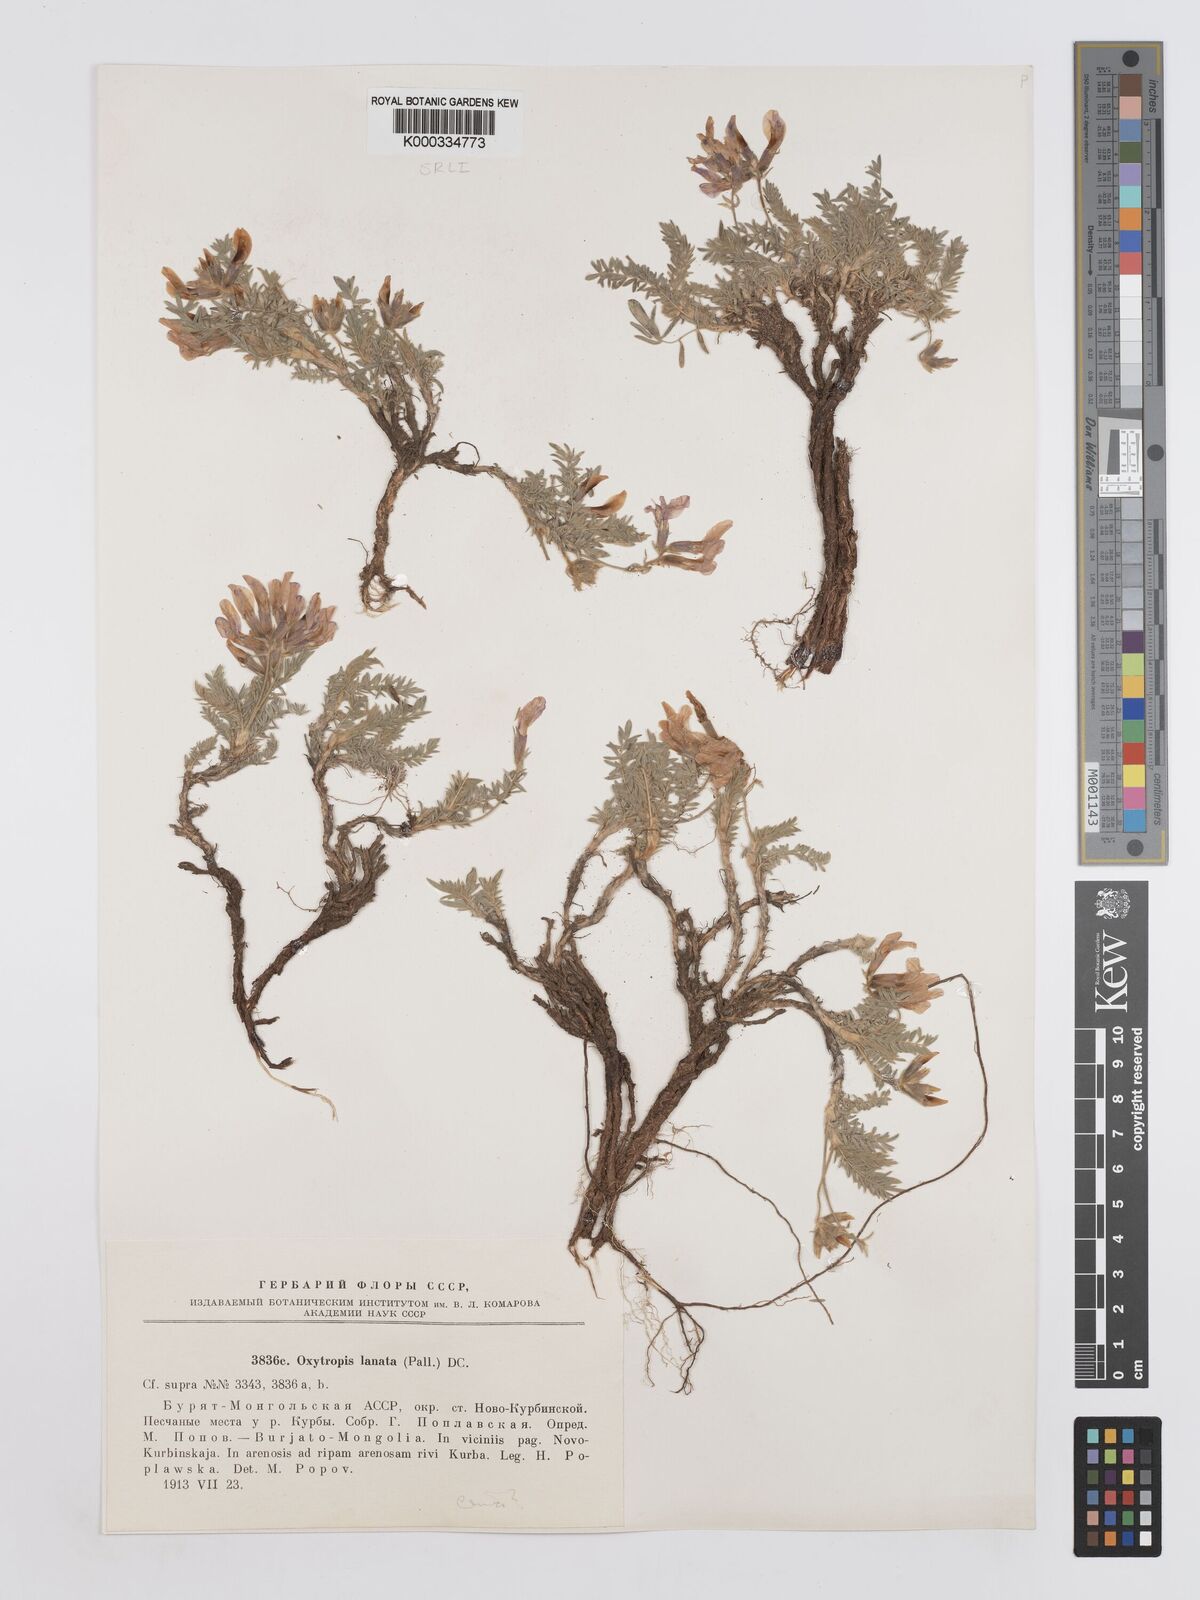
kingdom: Plantae
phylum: Tracheophyta
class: Magnoliopsida
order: Fabales
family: Fabaceae
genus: Oxytropis
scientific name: Oxytropis lanata
